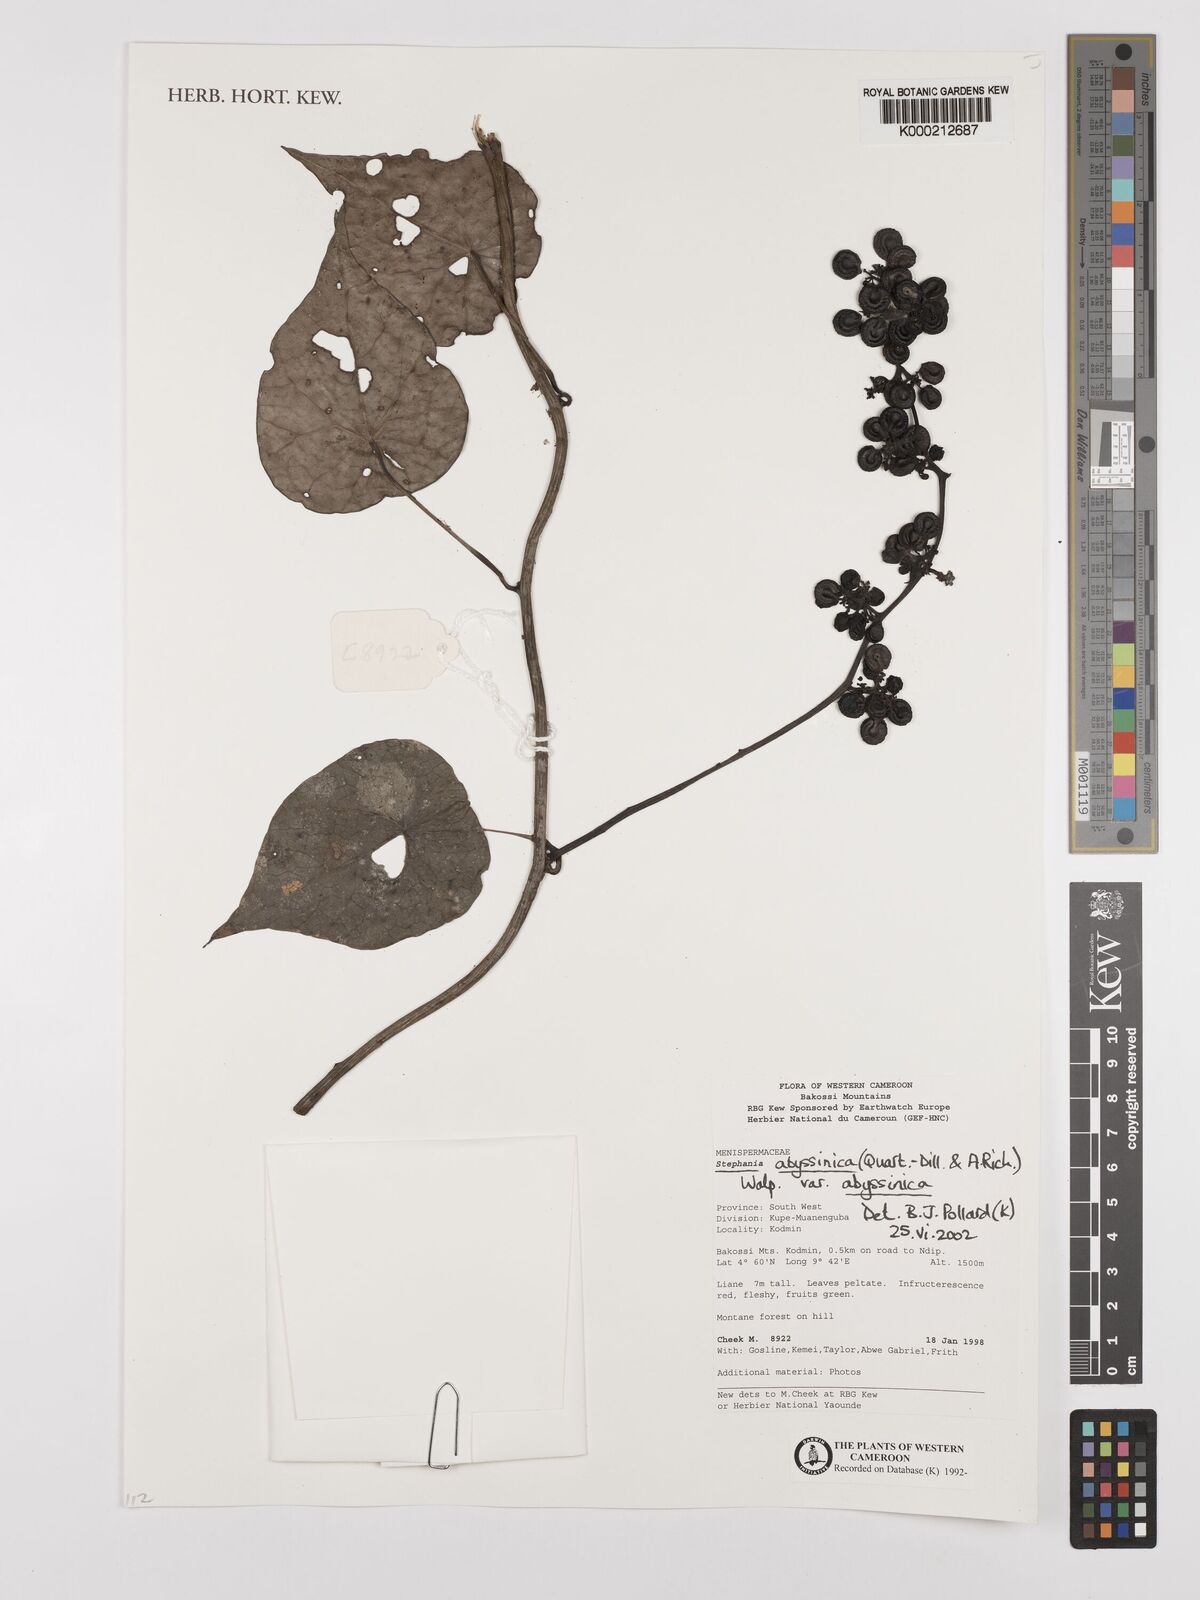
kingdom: Plantae
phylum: Tracheophyta
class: Magnoliopsida
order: Ranunculales
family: Menispermaceae
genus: Stephania
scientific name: Stephania
